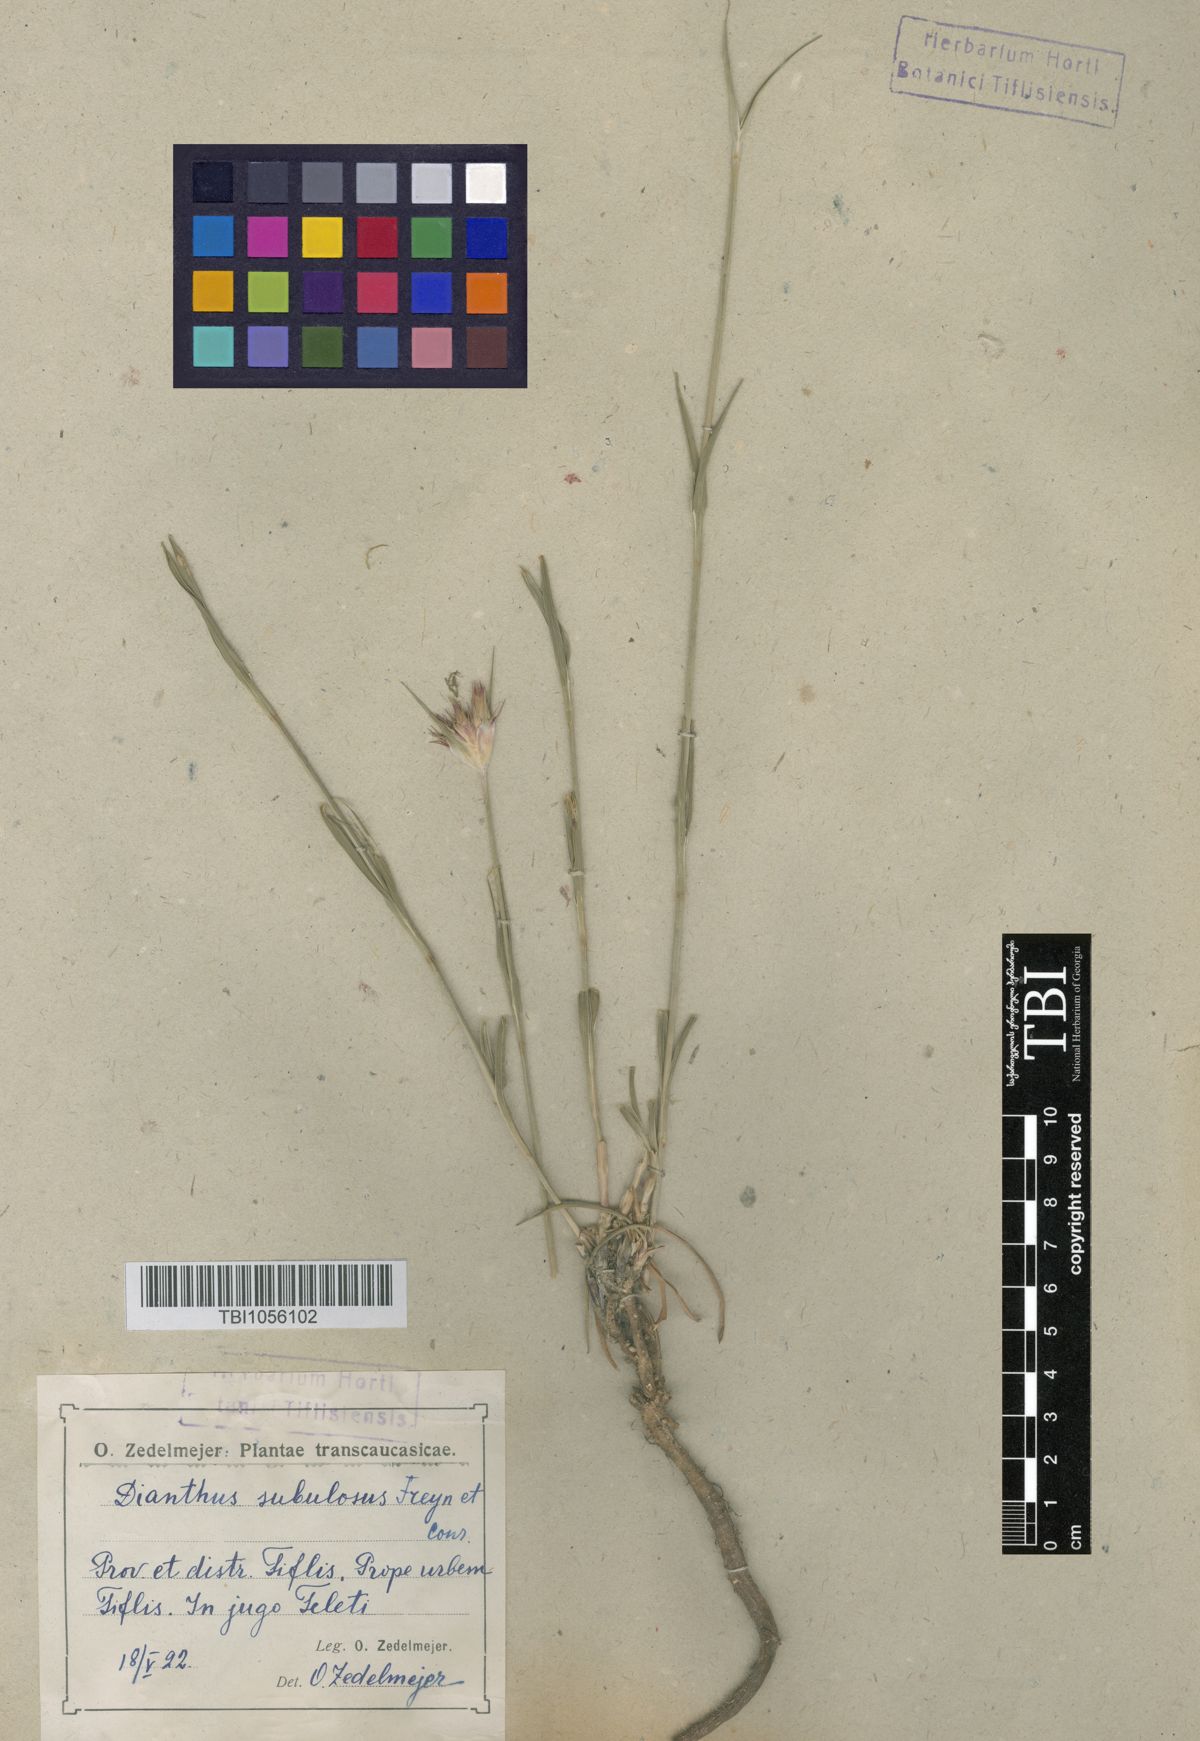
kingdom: Plantae
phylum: Tracheophyta
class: Magnoliopsida
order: Caryophyllales
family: Caryophyllaceae
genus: Dianthus
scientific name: Dianthus subulosus
